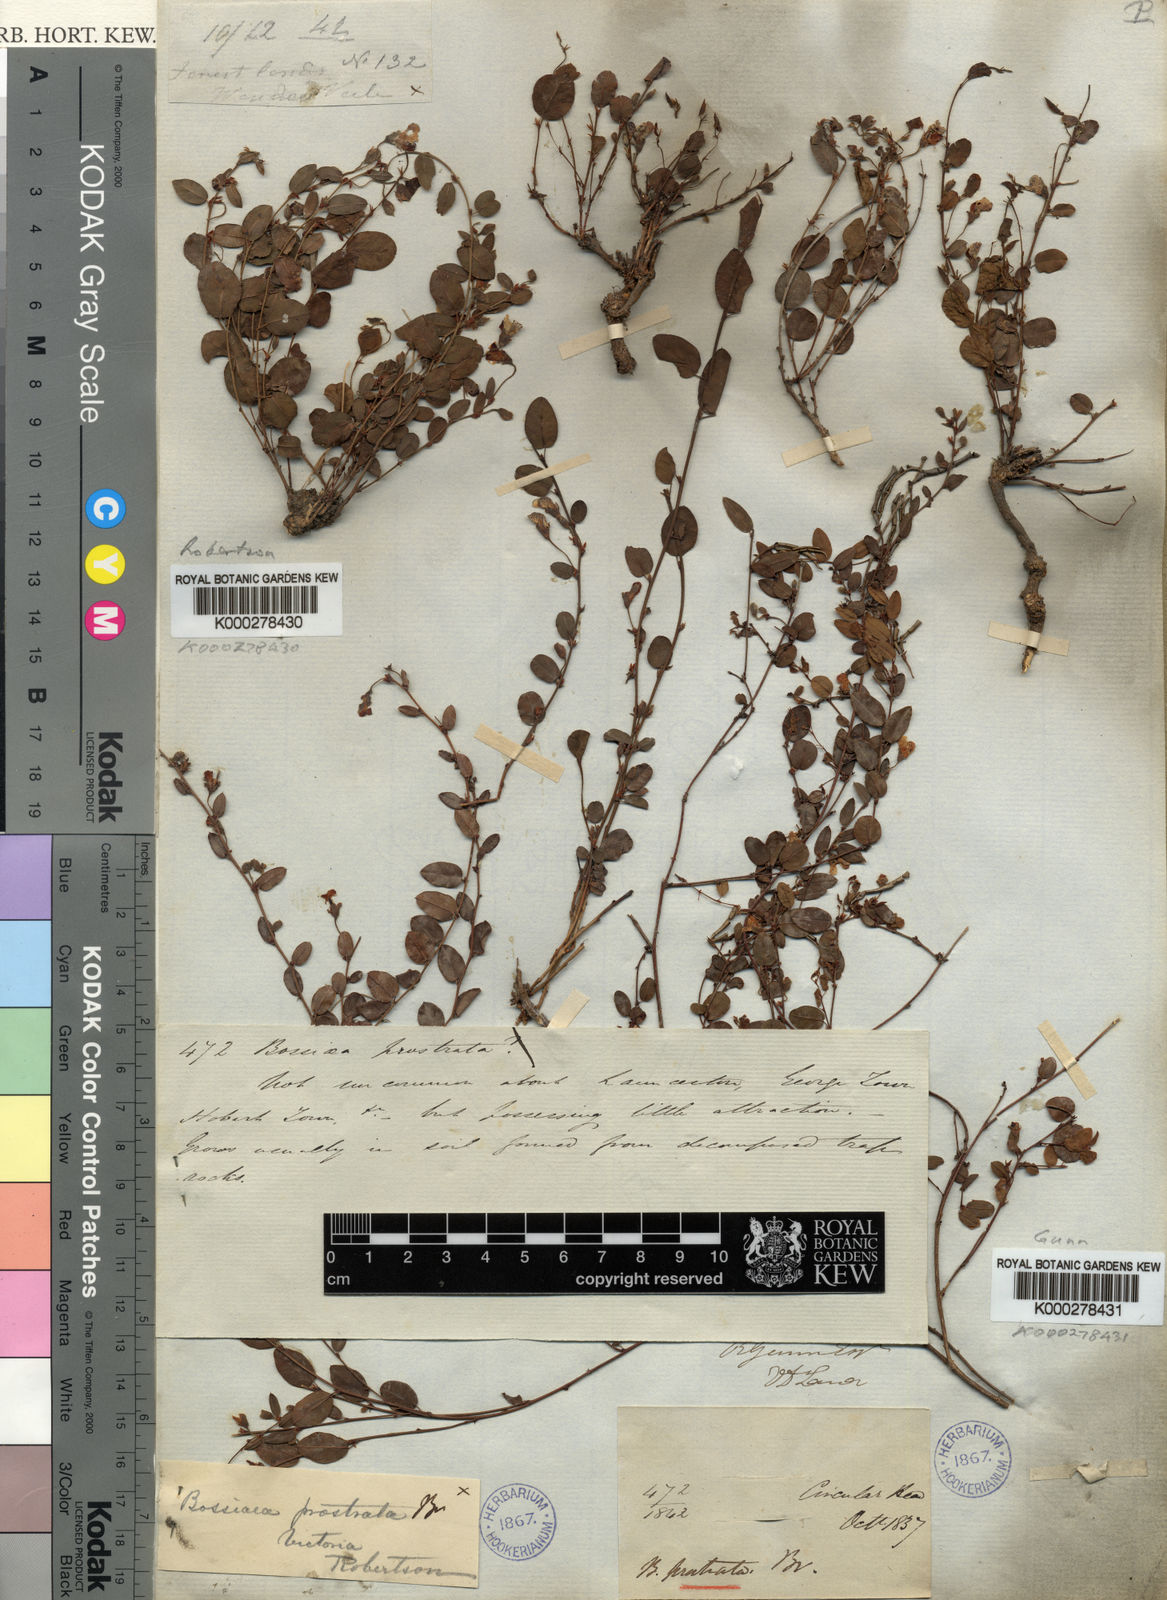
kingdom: Plantae
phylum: Tracheophyta
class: Magnoliopsida
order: Fabales
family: Fabaceae
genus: Bossiaea
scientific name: Bossiaea prostrata
